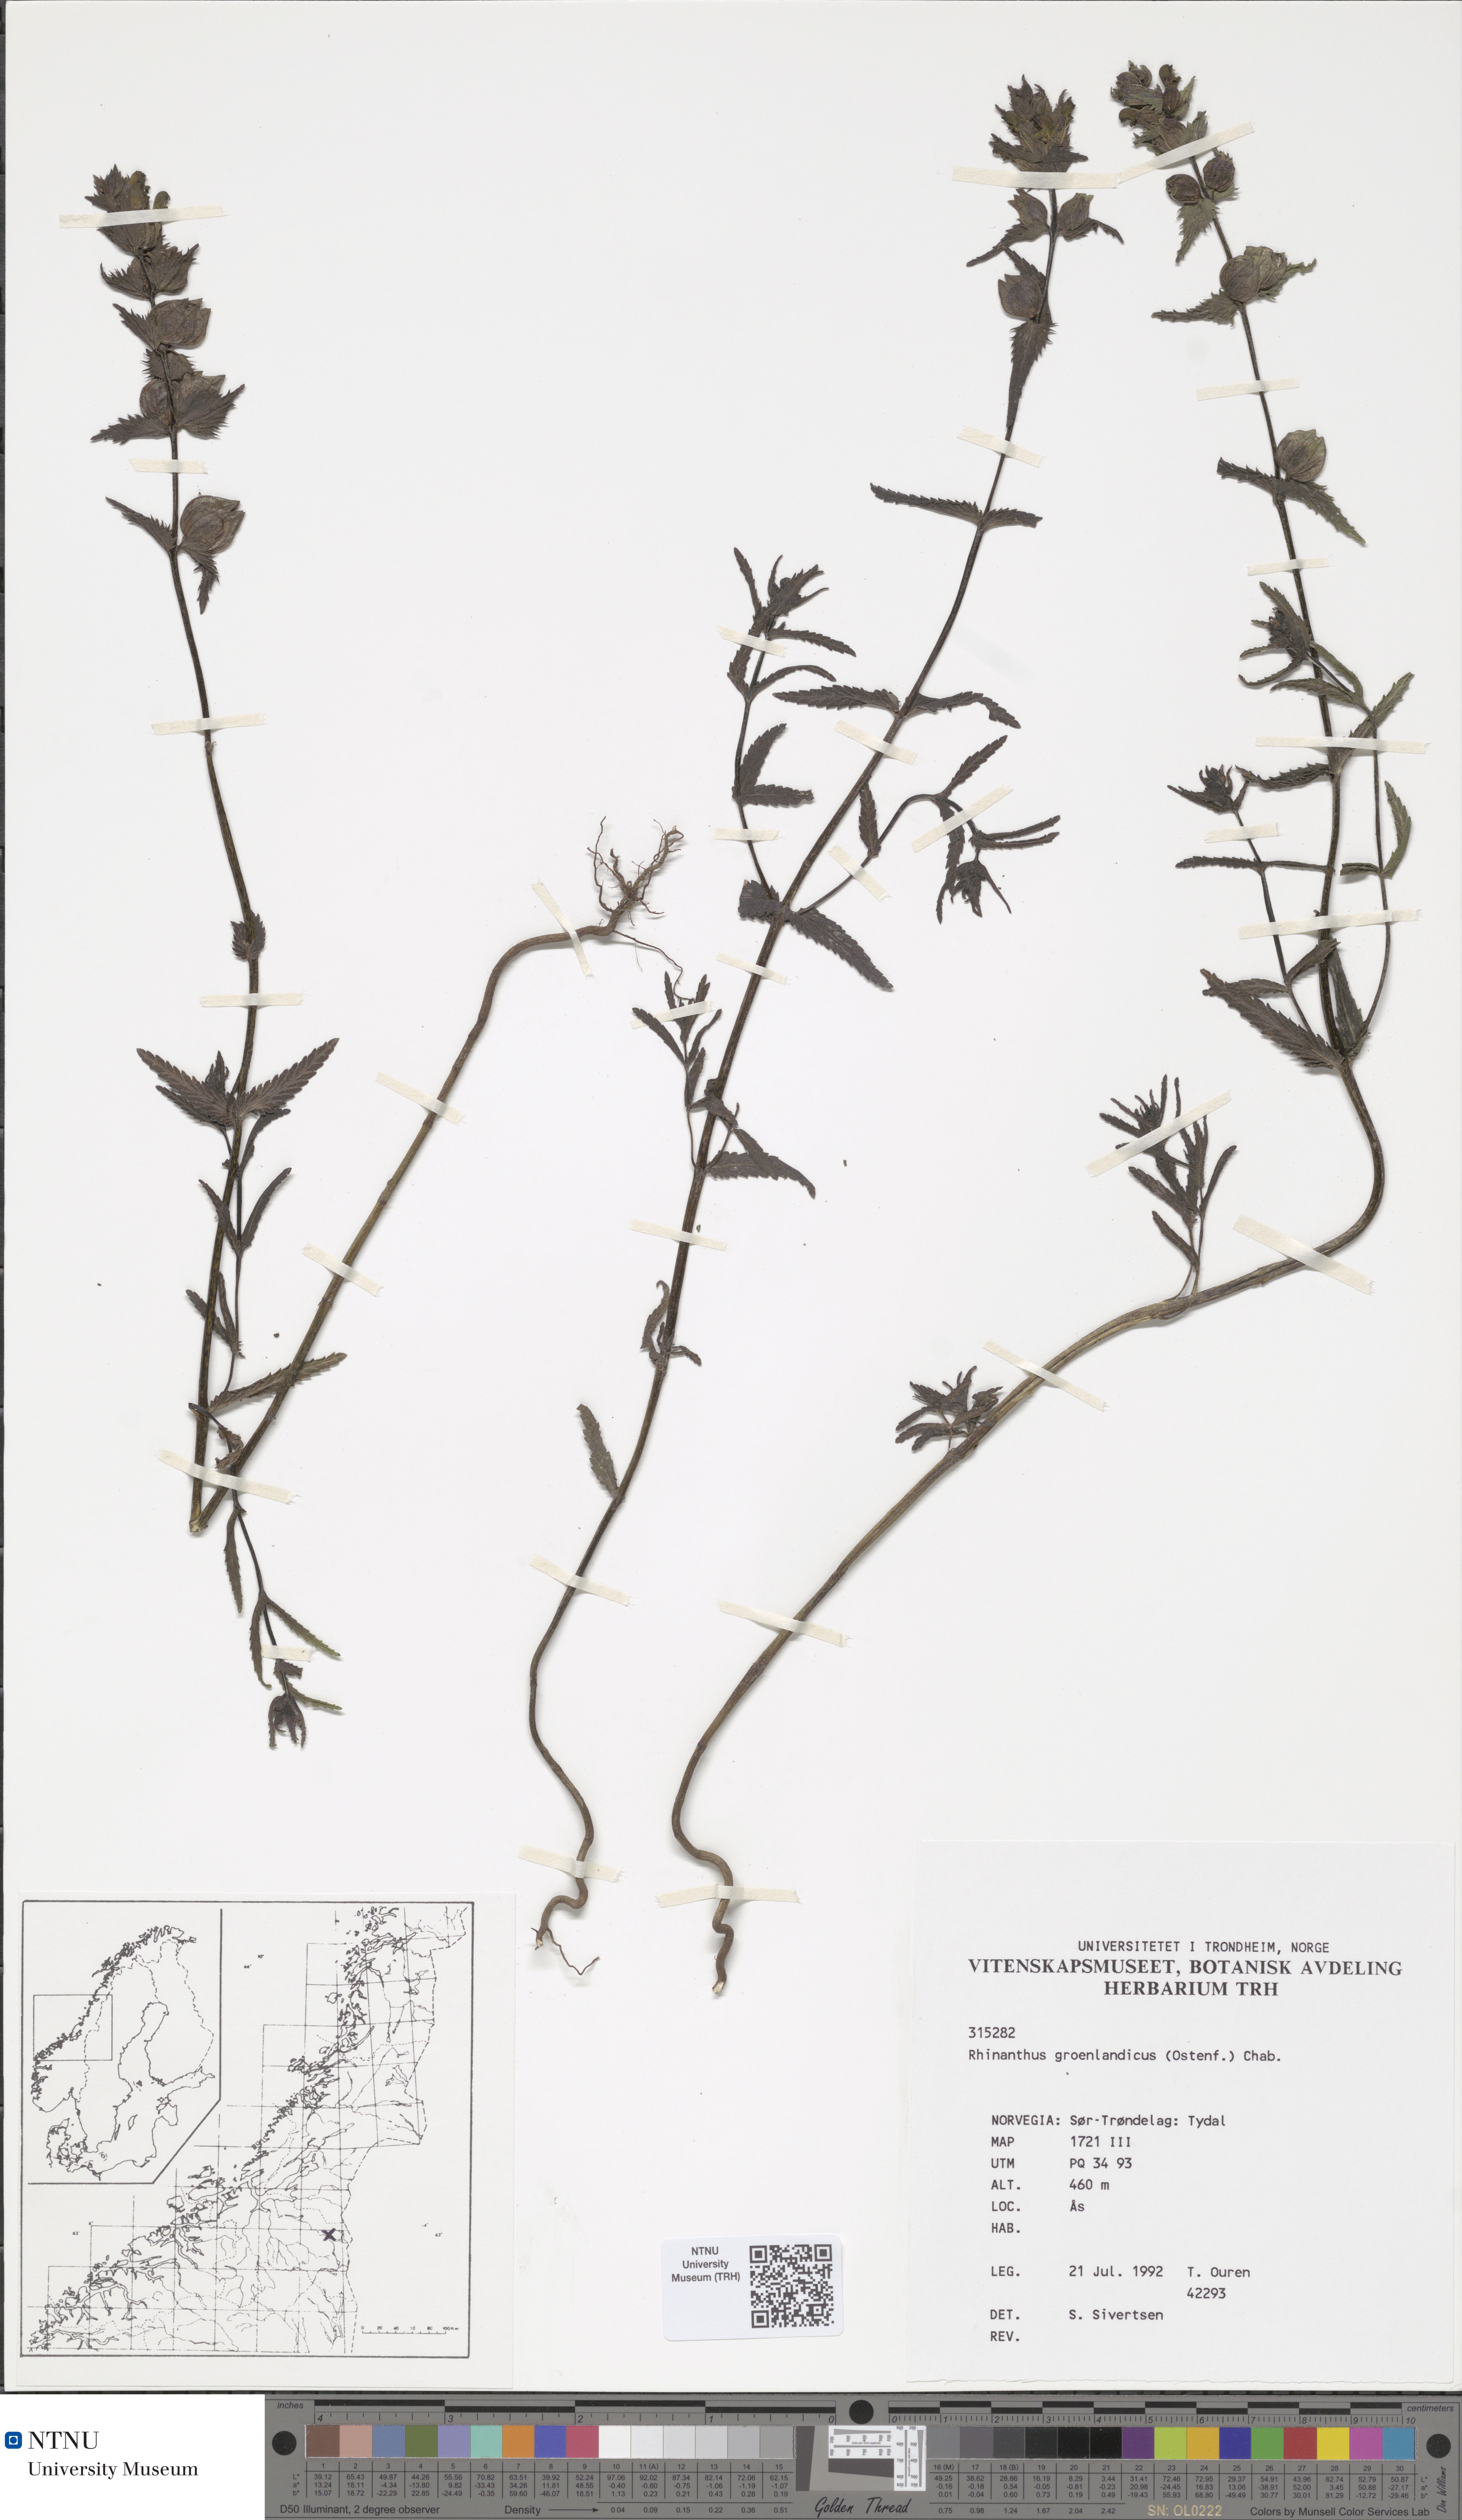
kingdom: Plantae
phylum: Tracheophyta
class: Magnoliopsida
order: Lamiales
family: Orobanchaceae
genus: Rhinanthus
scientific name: Rhinanthus groenlandicus
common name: Little yellow rattle
